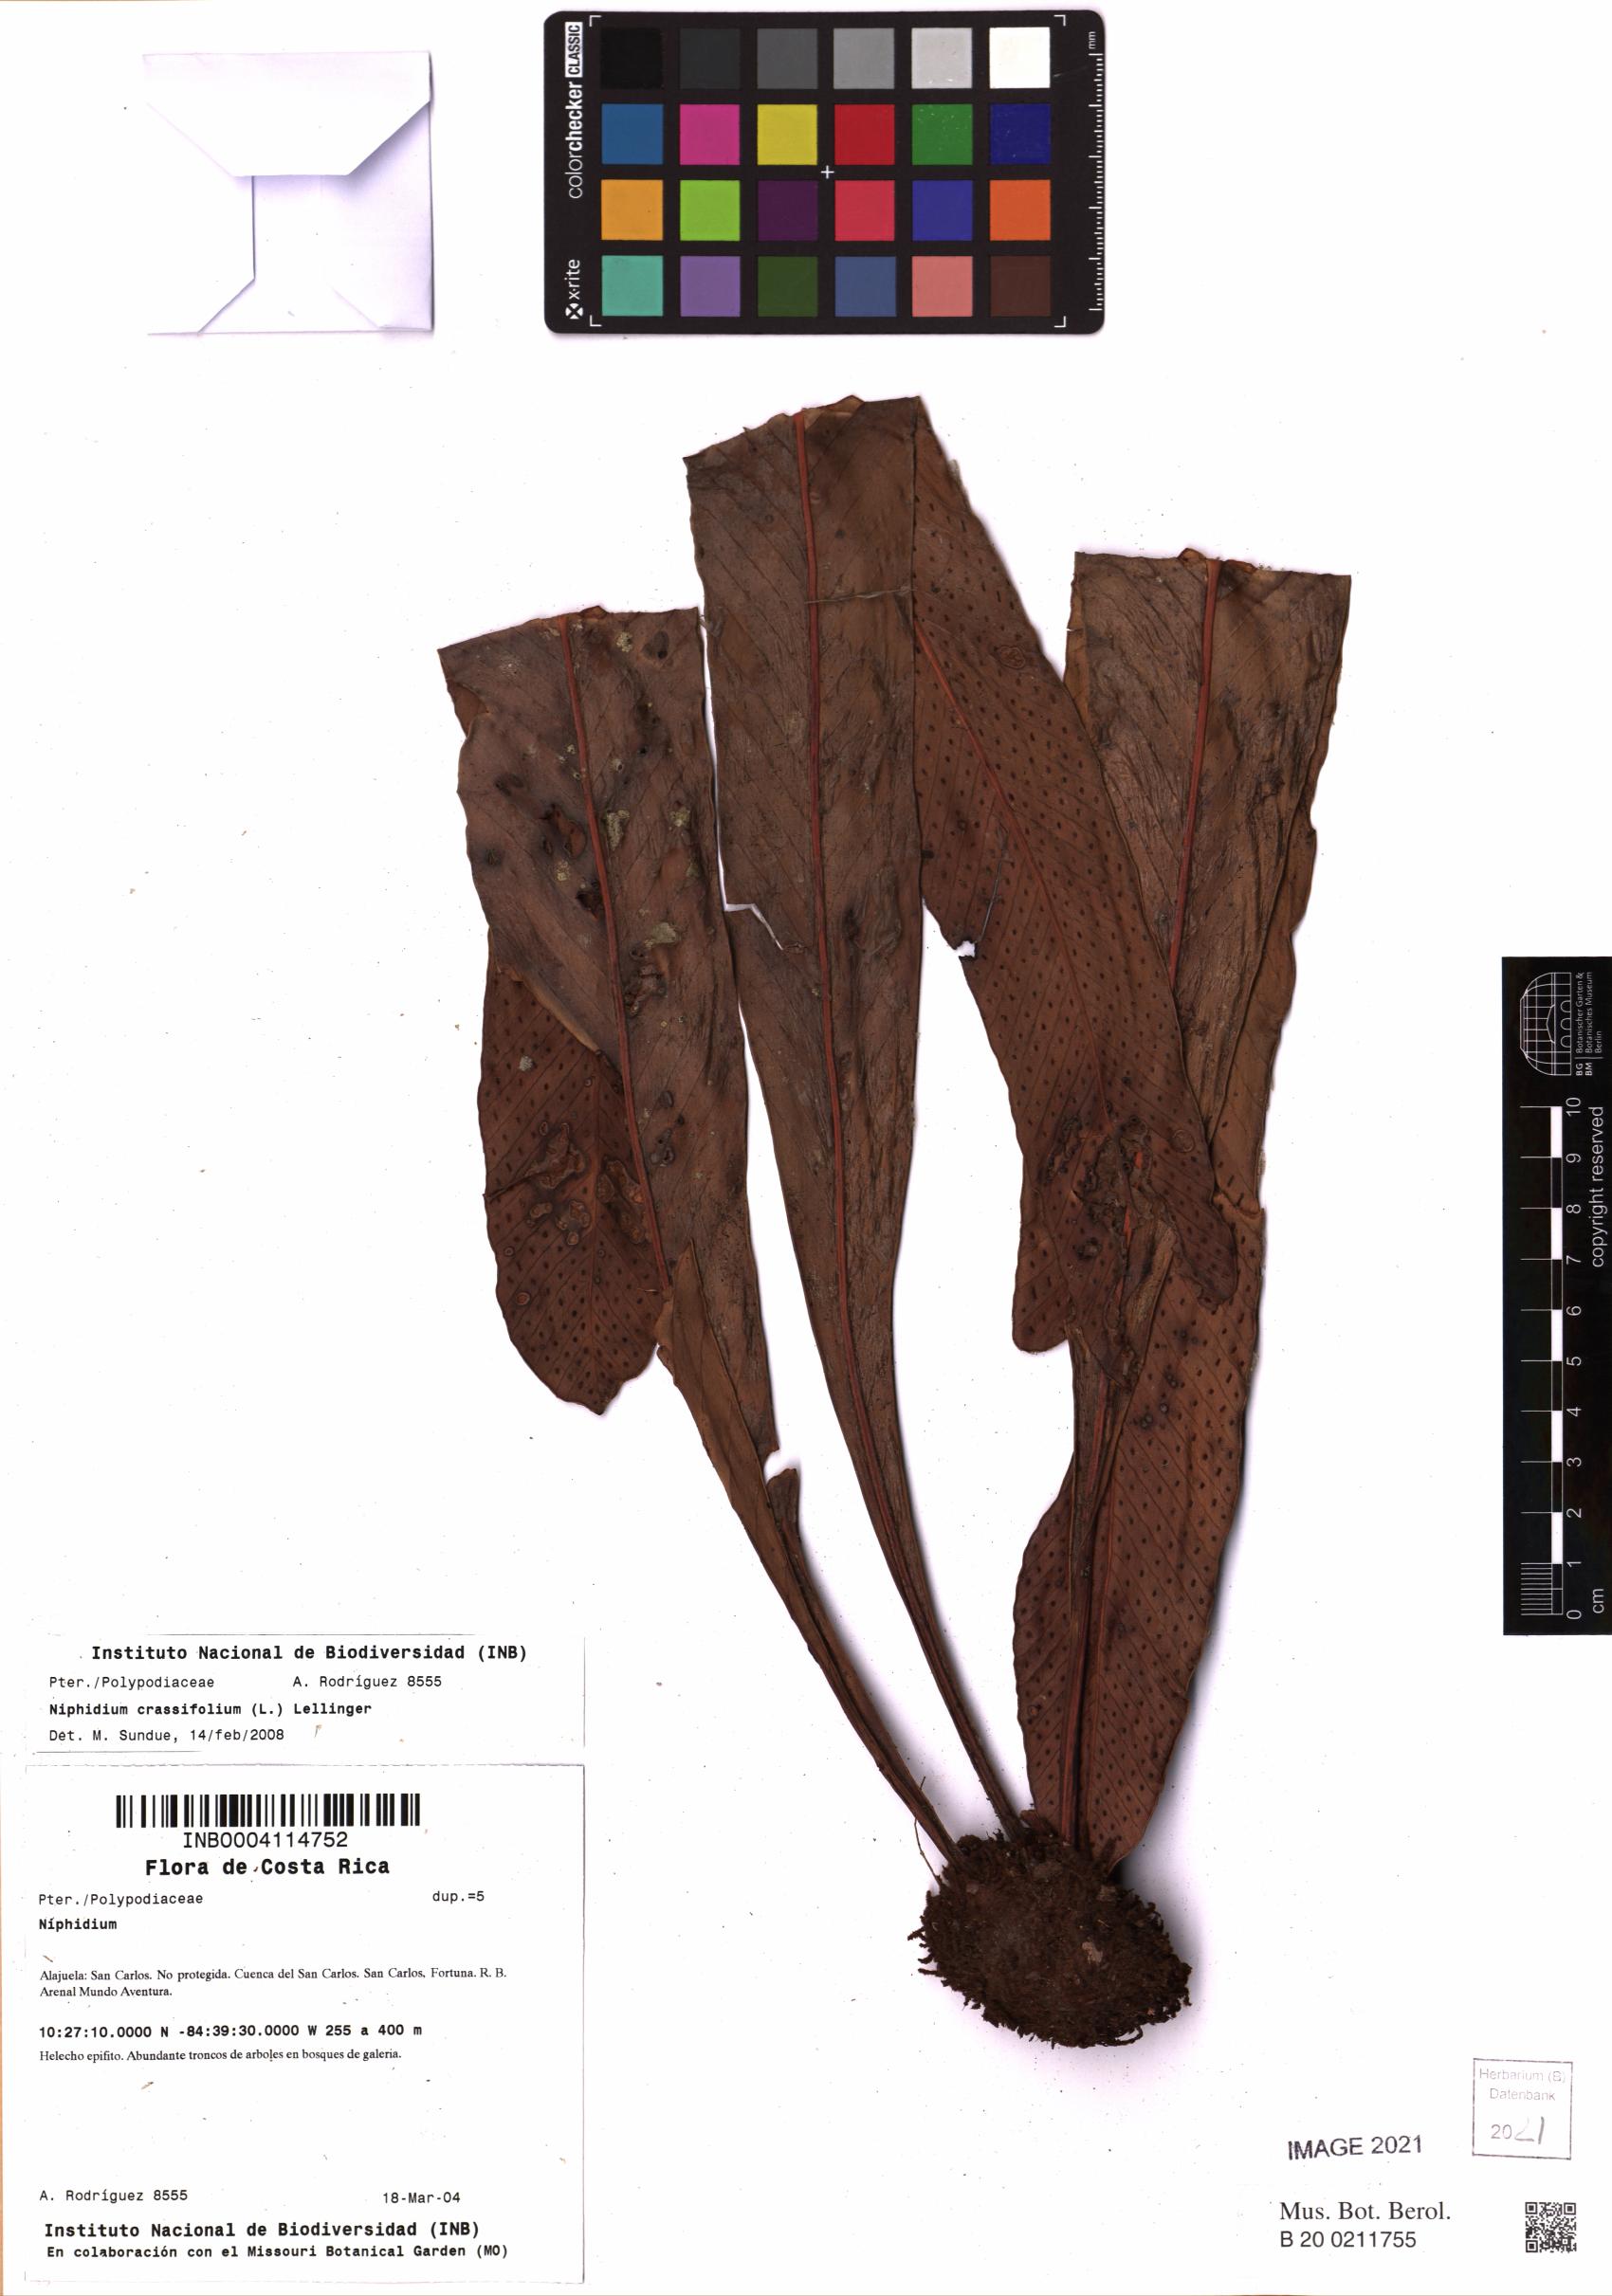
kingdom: Plantae
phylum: Tracheophyta
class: Polypodiopsida
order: Polypodiales
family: Polypodiaceae
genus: Niphidium
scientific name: Niphidium crassifolium
